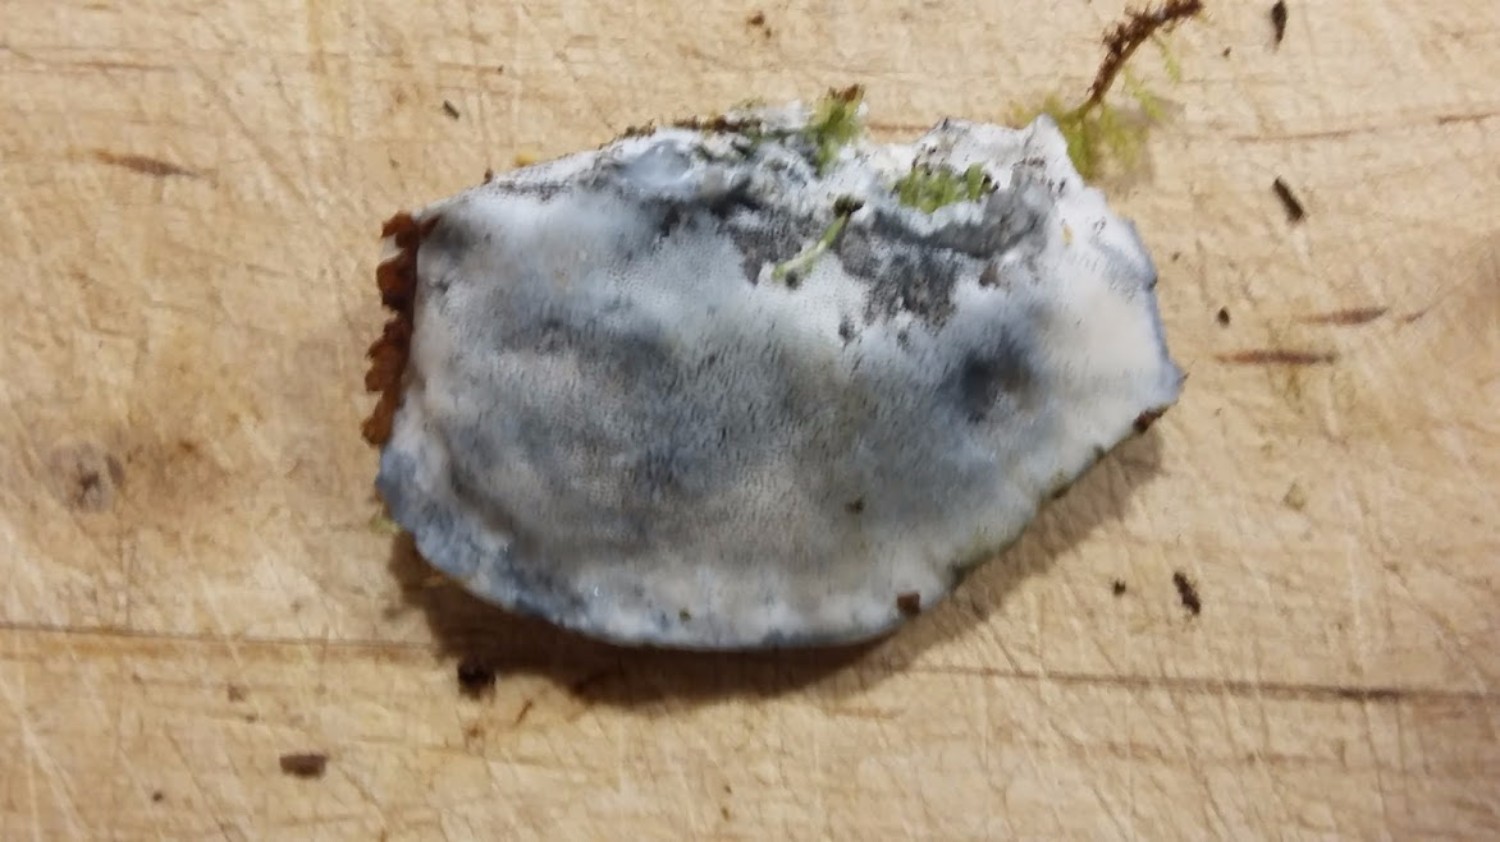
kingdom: Fungi
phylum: Basidiomycota
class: Agaricomycetes
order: Polyporales
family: Polyporaceae
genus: Cyanosporus
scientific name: Cyanosporus caesius
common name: blålig kødporesvamp
